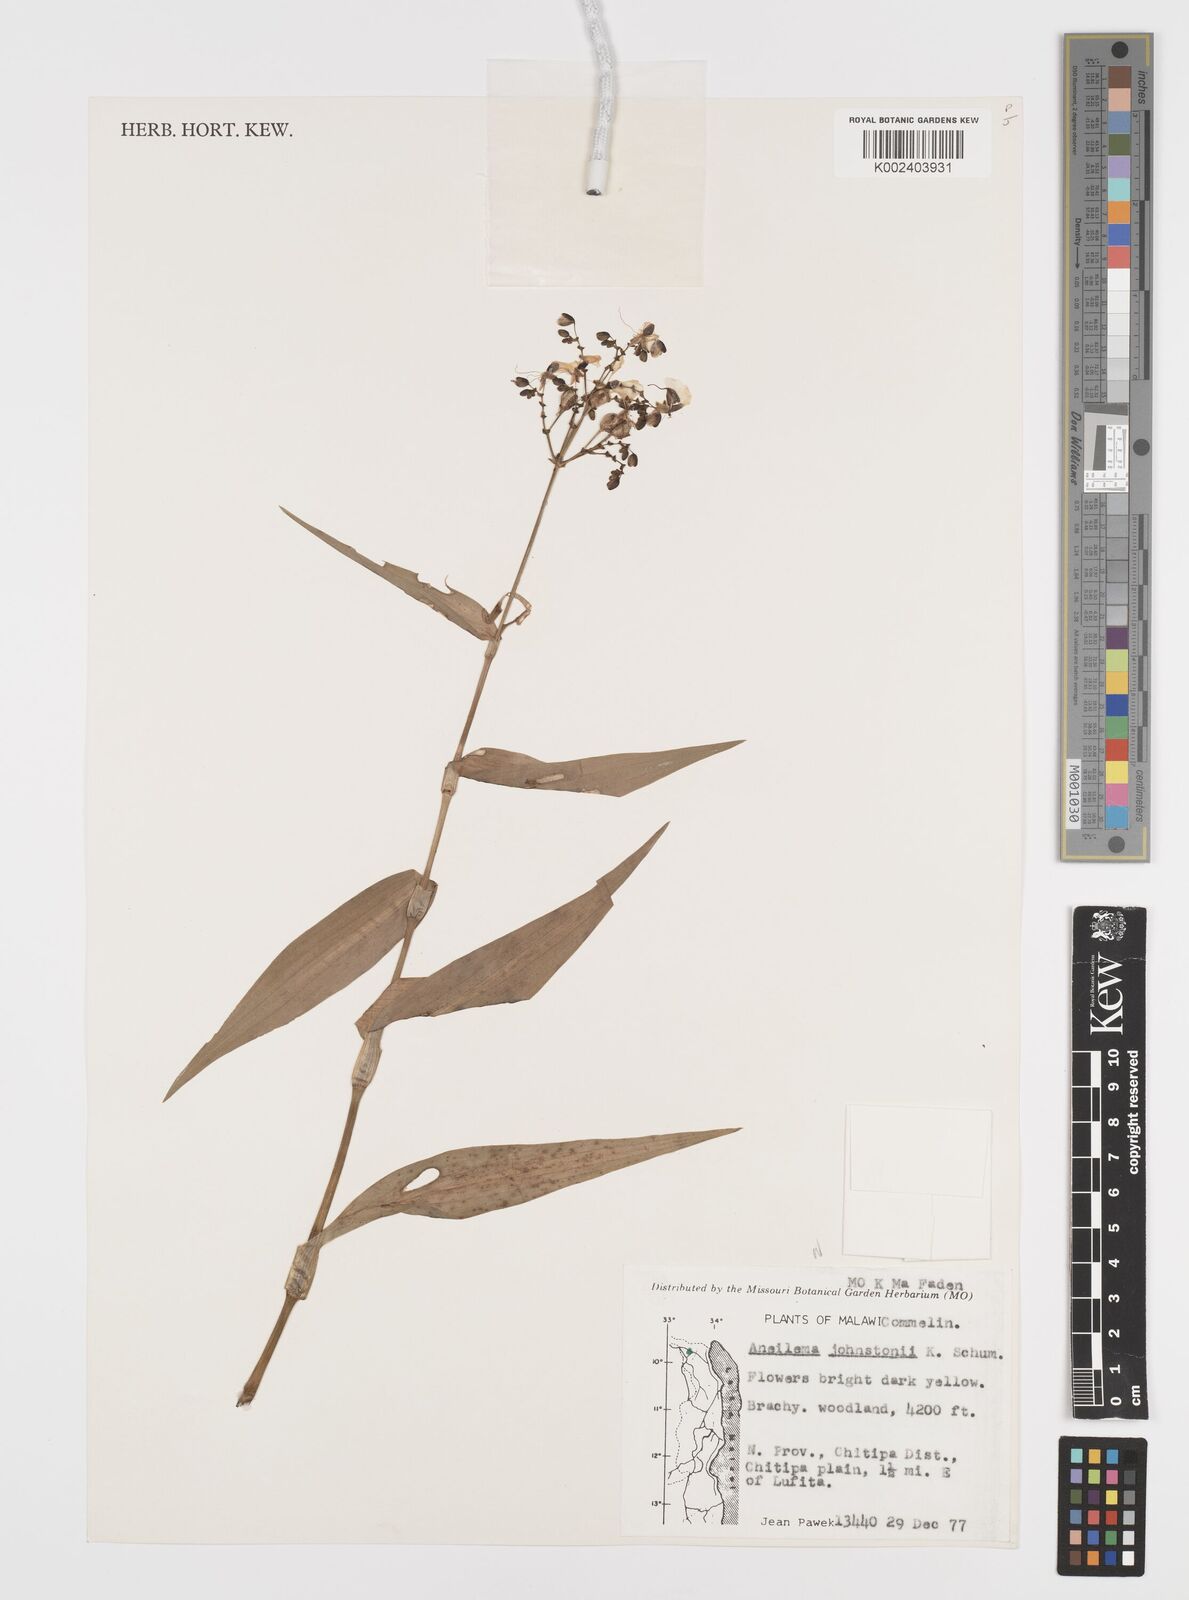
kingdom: Plantae
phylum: Tracheophyta
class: Liliopsida
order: Commelinales
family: Commelinaceae
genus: Aneilema
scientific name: Aneilema johnstonii
